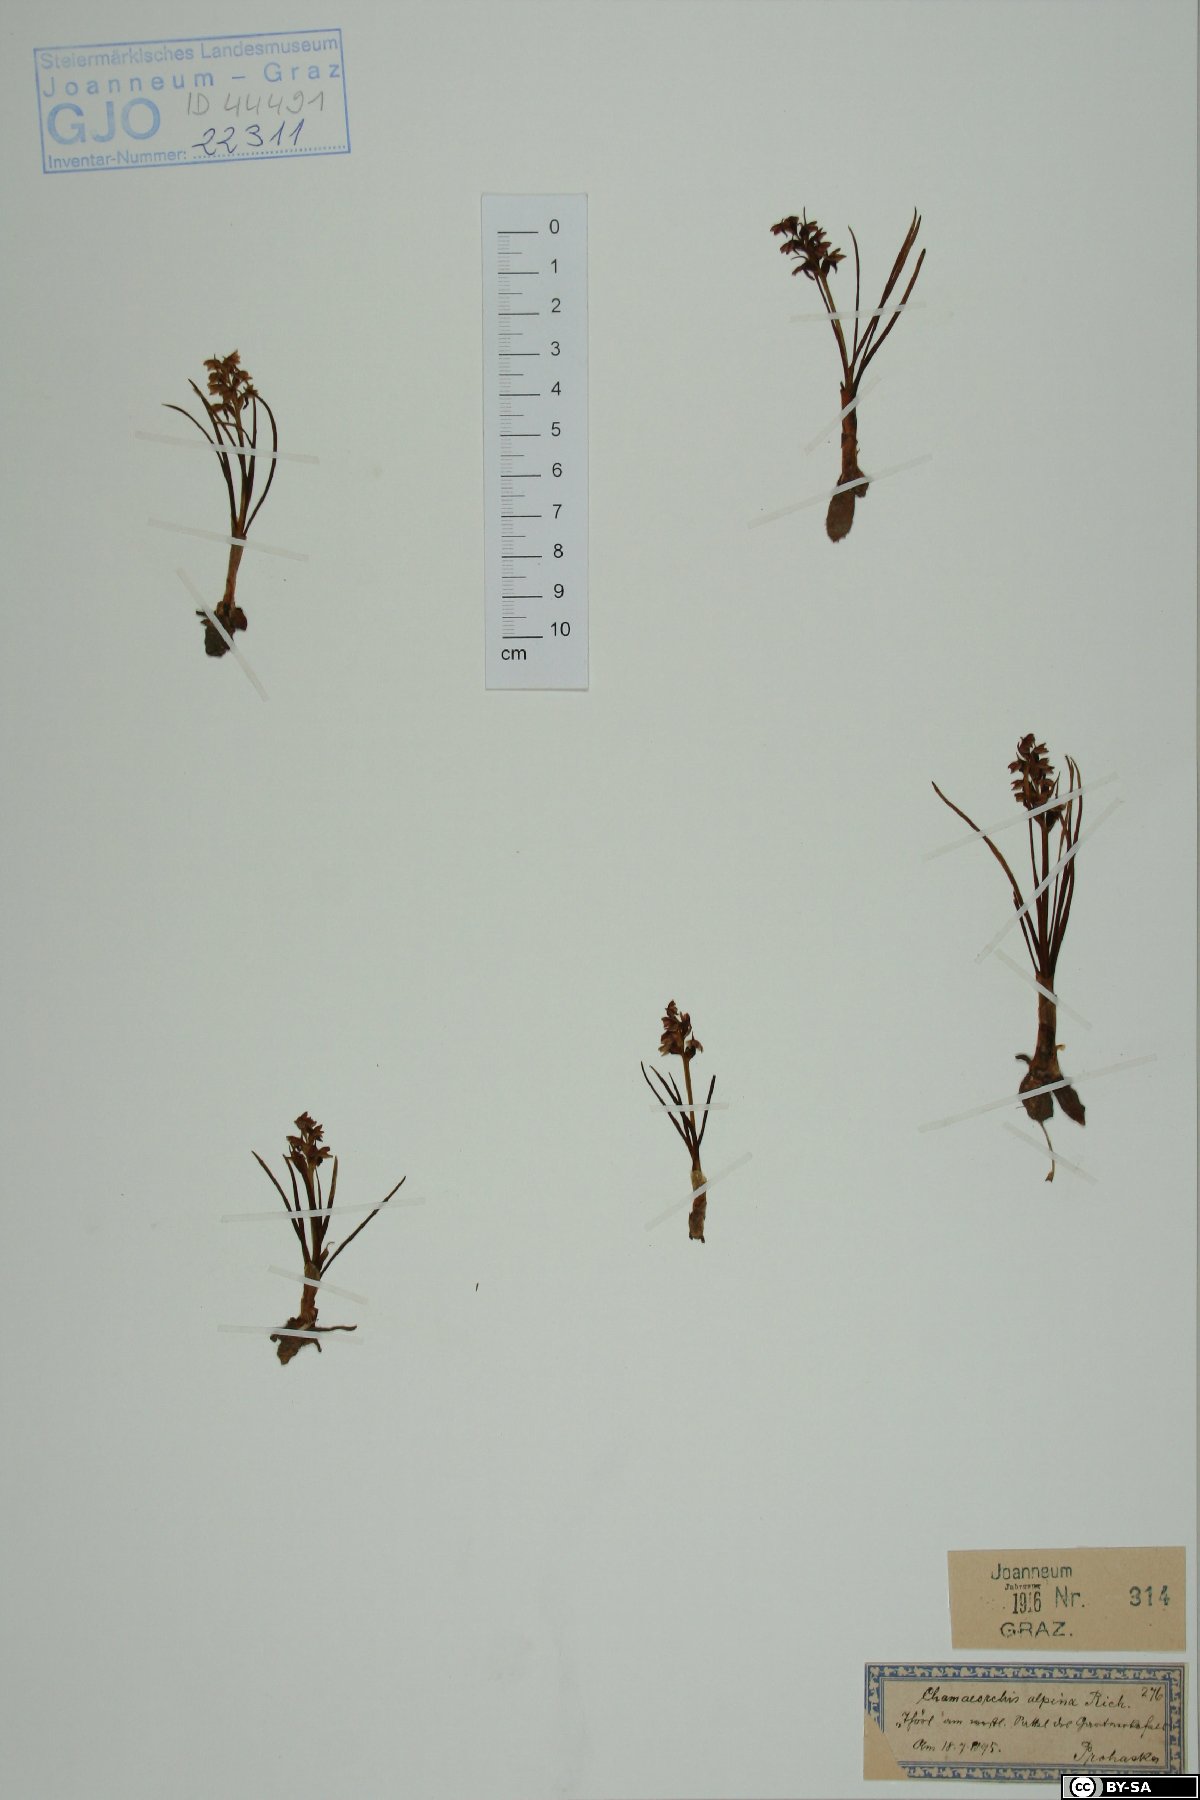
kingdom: Plantae
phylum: Tracheophyta
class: Liliopsida
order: Asparagales
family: Orchidaceae
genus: Chamorchis
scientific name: Chamorchis alpina
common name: Alpine chamorchis
